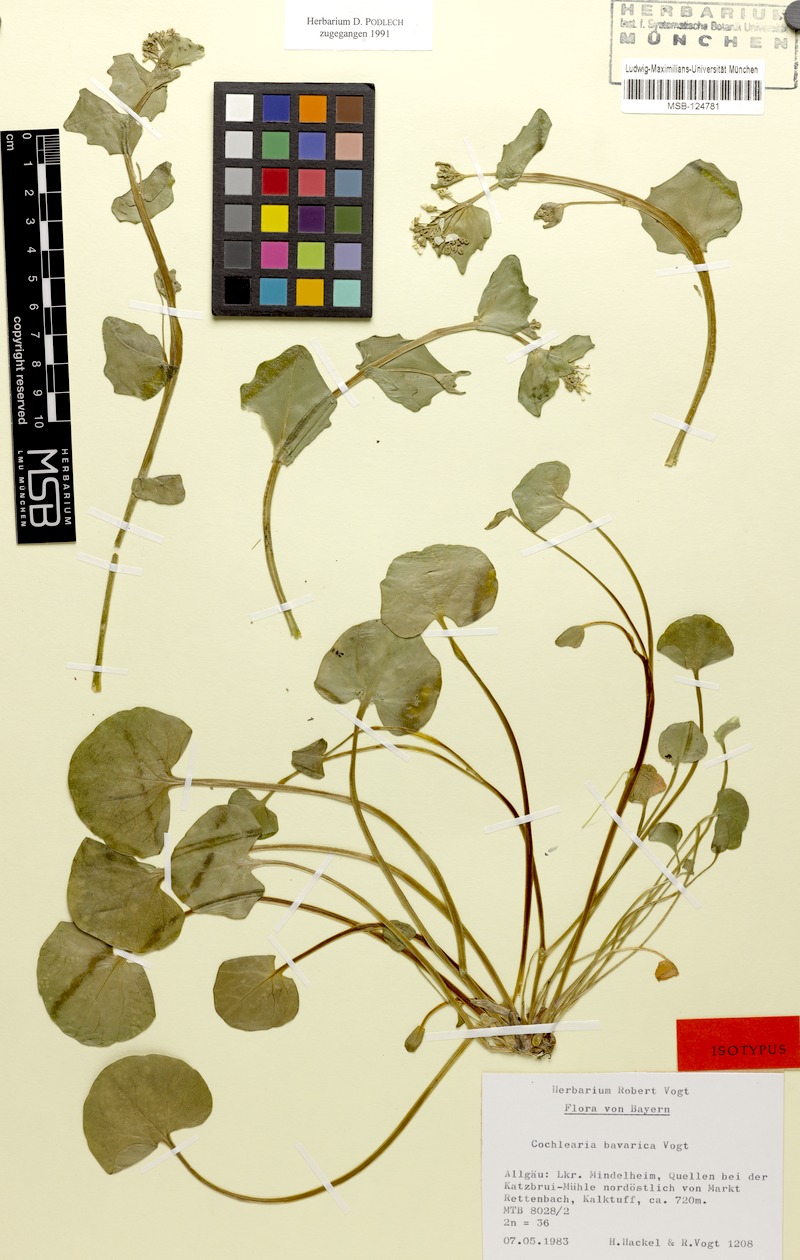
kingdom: Plantae
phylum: Tracheophyta
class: Magnoliopsida
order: Brassicales
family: Brassicaceae
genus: Cochlearia
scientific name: Cochlearia bavarica
